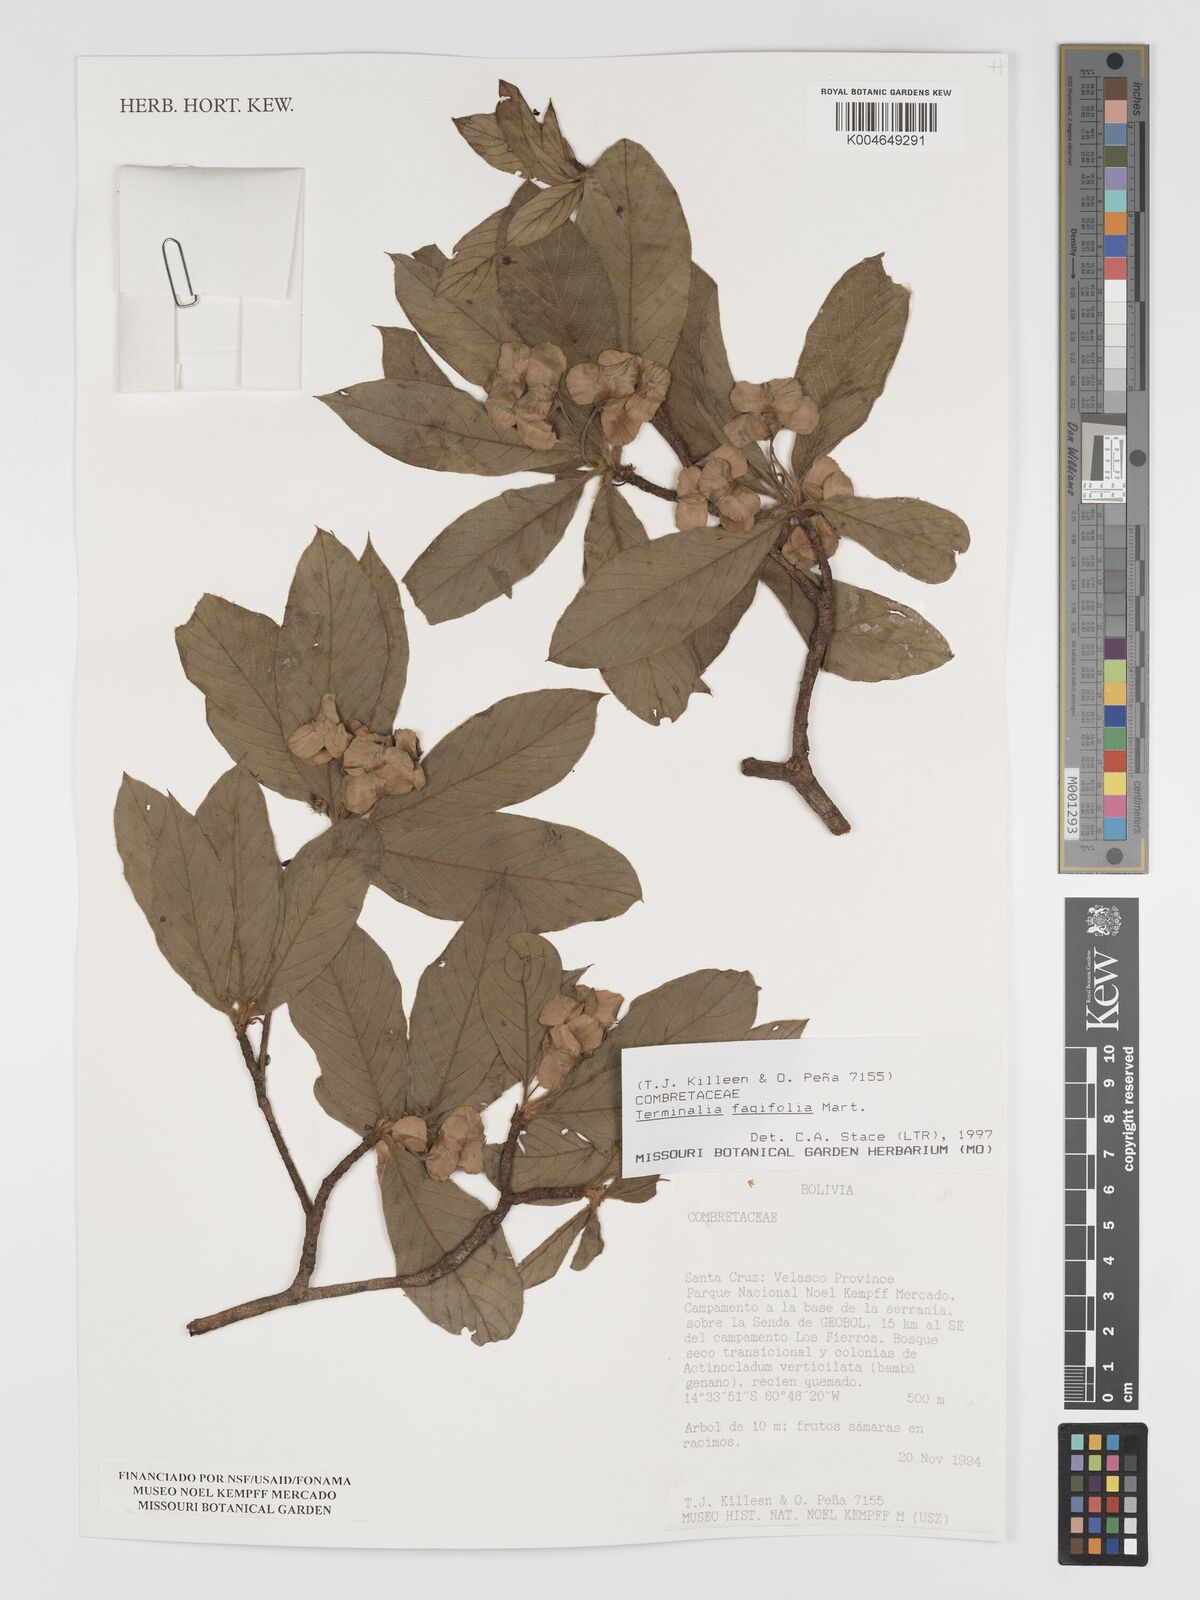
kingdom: Plantae
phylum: Tracheophyta
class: Magnoliopsida
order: Myrtales
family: Combretaceae
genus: Terminalia
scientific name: Terminalia fagifolia
